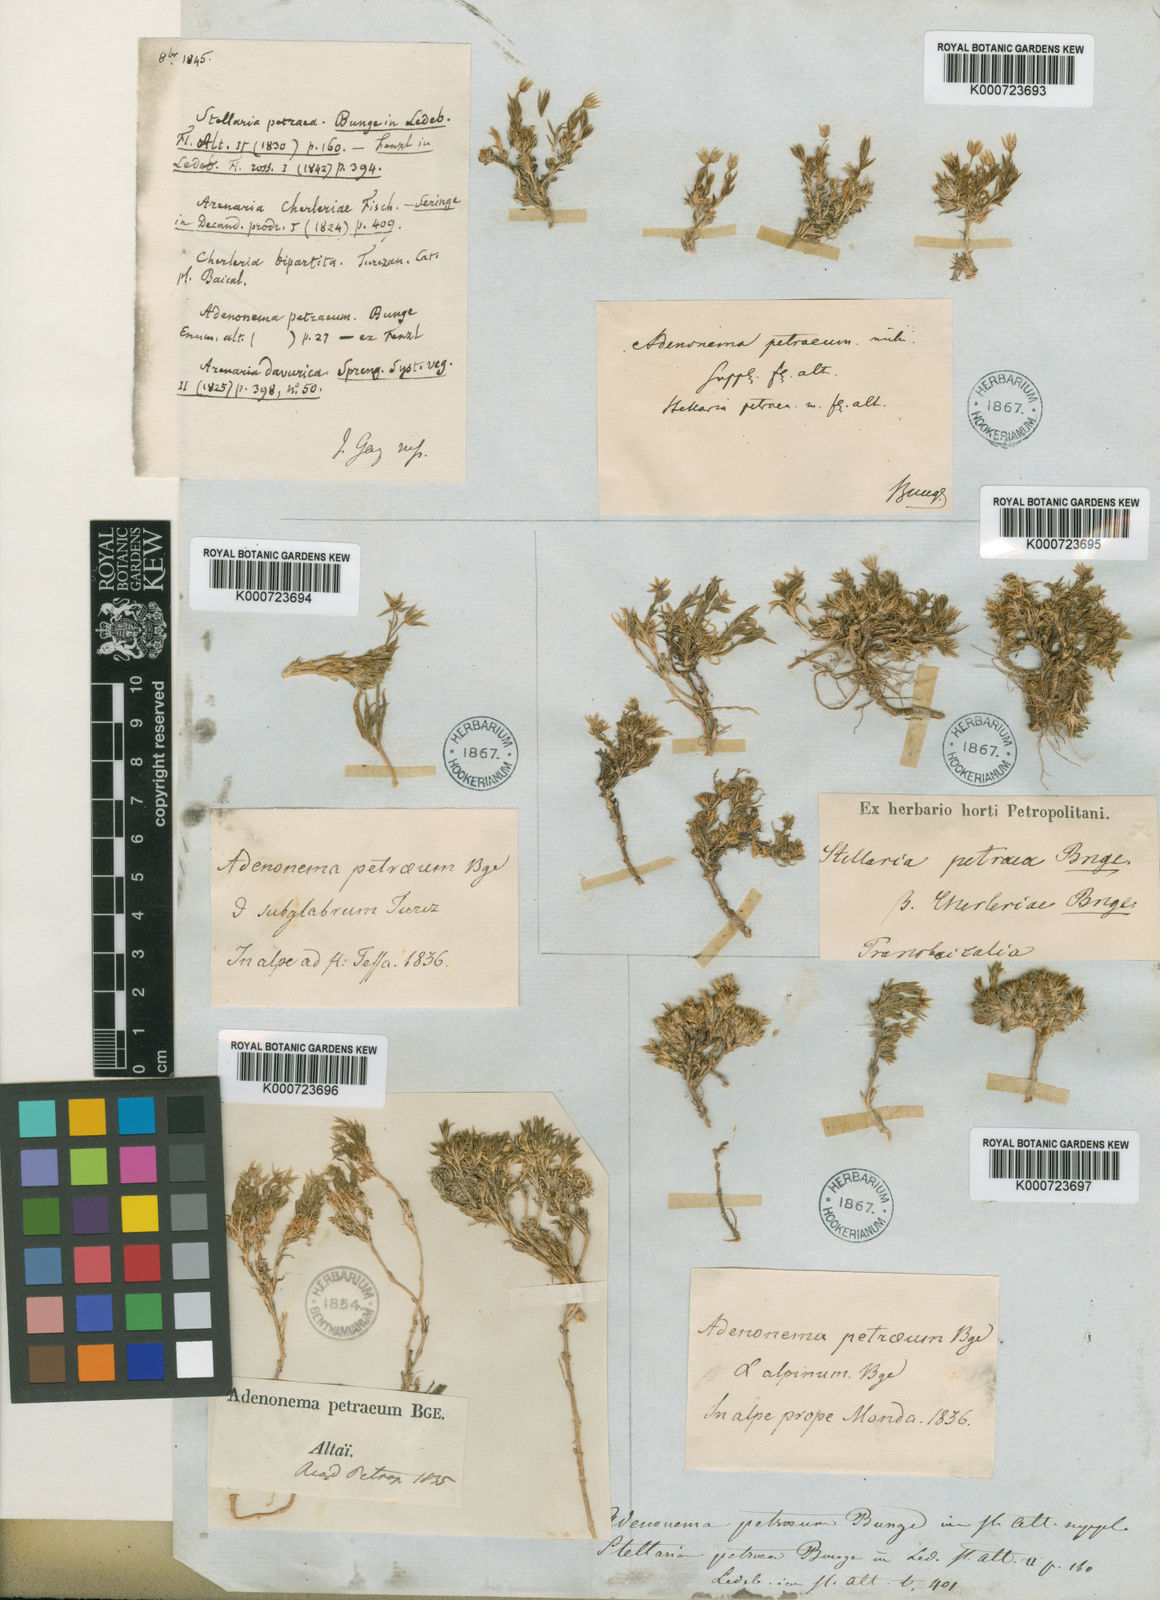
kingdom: Plantae
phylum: Tracheophyta
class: Magnoliopsida
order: Caryophyllales
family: Caryophyllaceae
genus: Adenonema
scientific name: Adenonema petraeum
